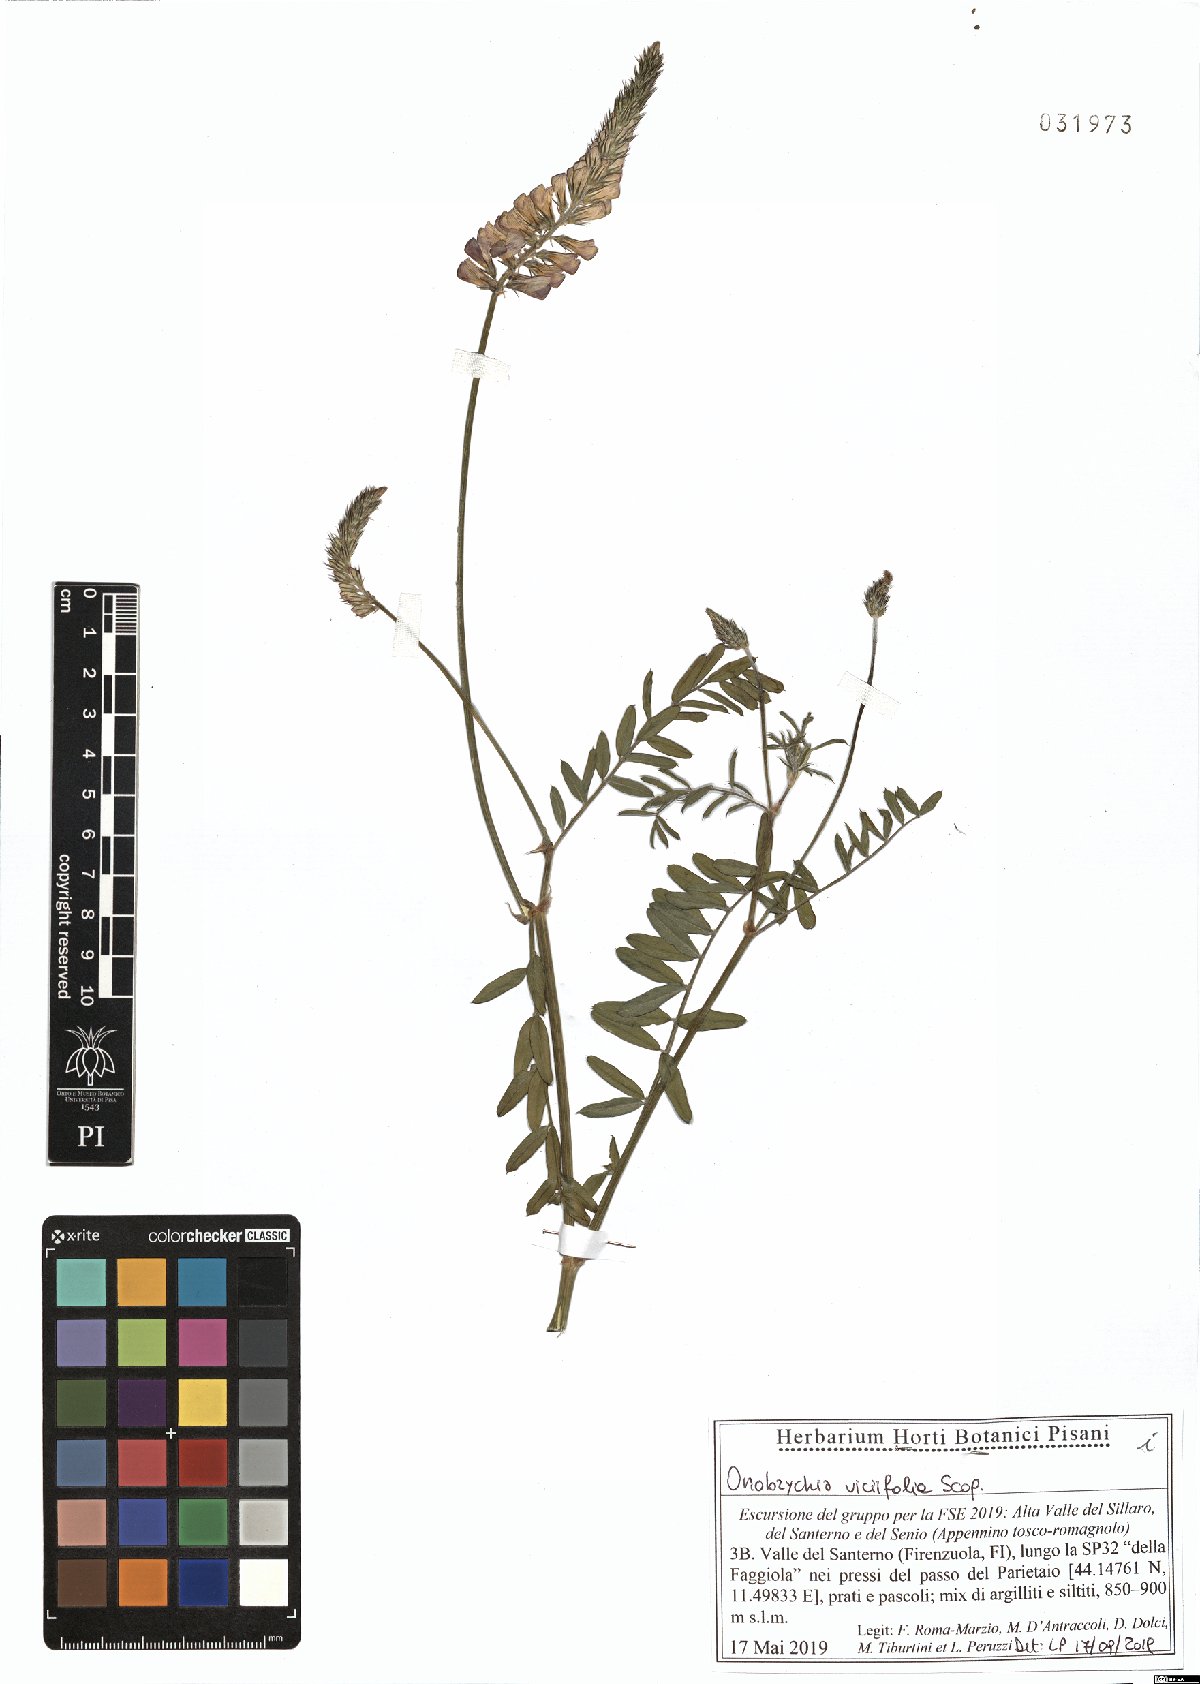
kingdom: Plantae
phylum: Tracheophyta
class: Magnoliopsida
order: Fabales
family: Fabaceae
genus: Onobrychis
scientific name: Onobrychis viciifolia
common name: Sainfoin
